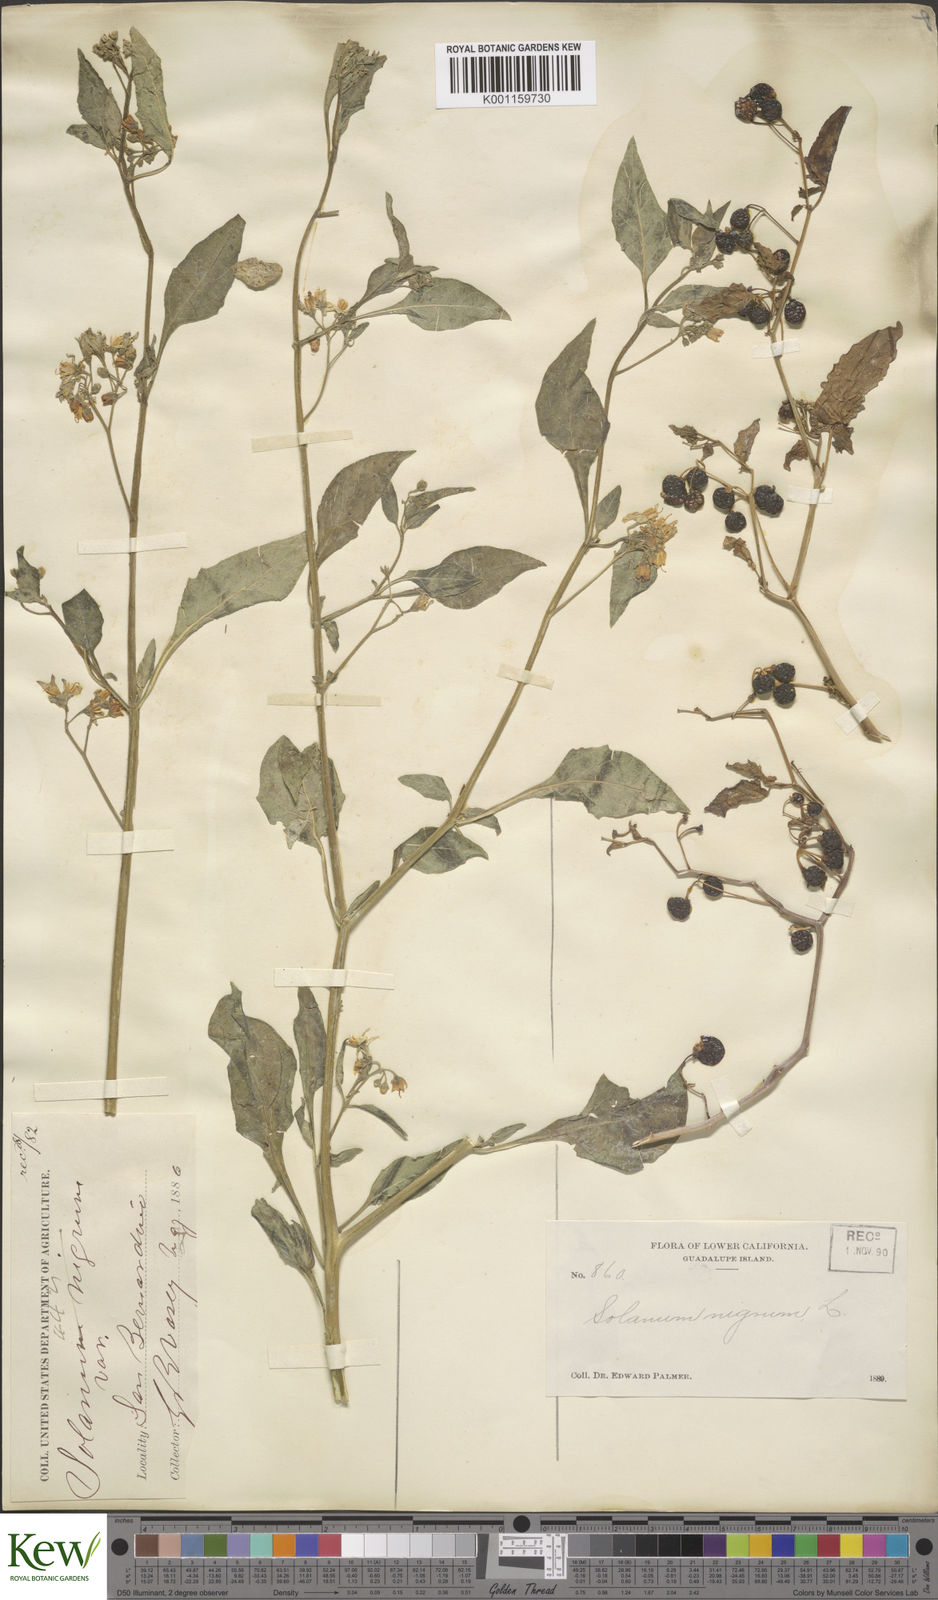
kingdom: Plantae
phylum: Tracheophyta
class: Magnoliopsida
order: Solanales
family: Solanaceae
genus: Solanum
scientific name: Solanum nigrum
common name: Black nightshade
